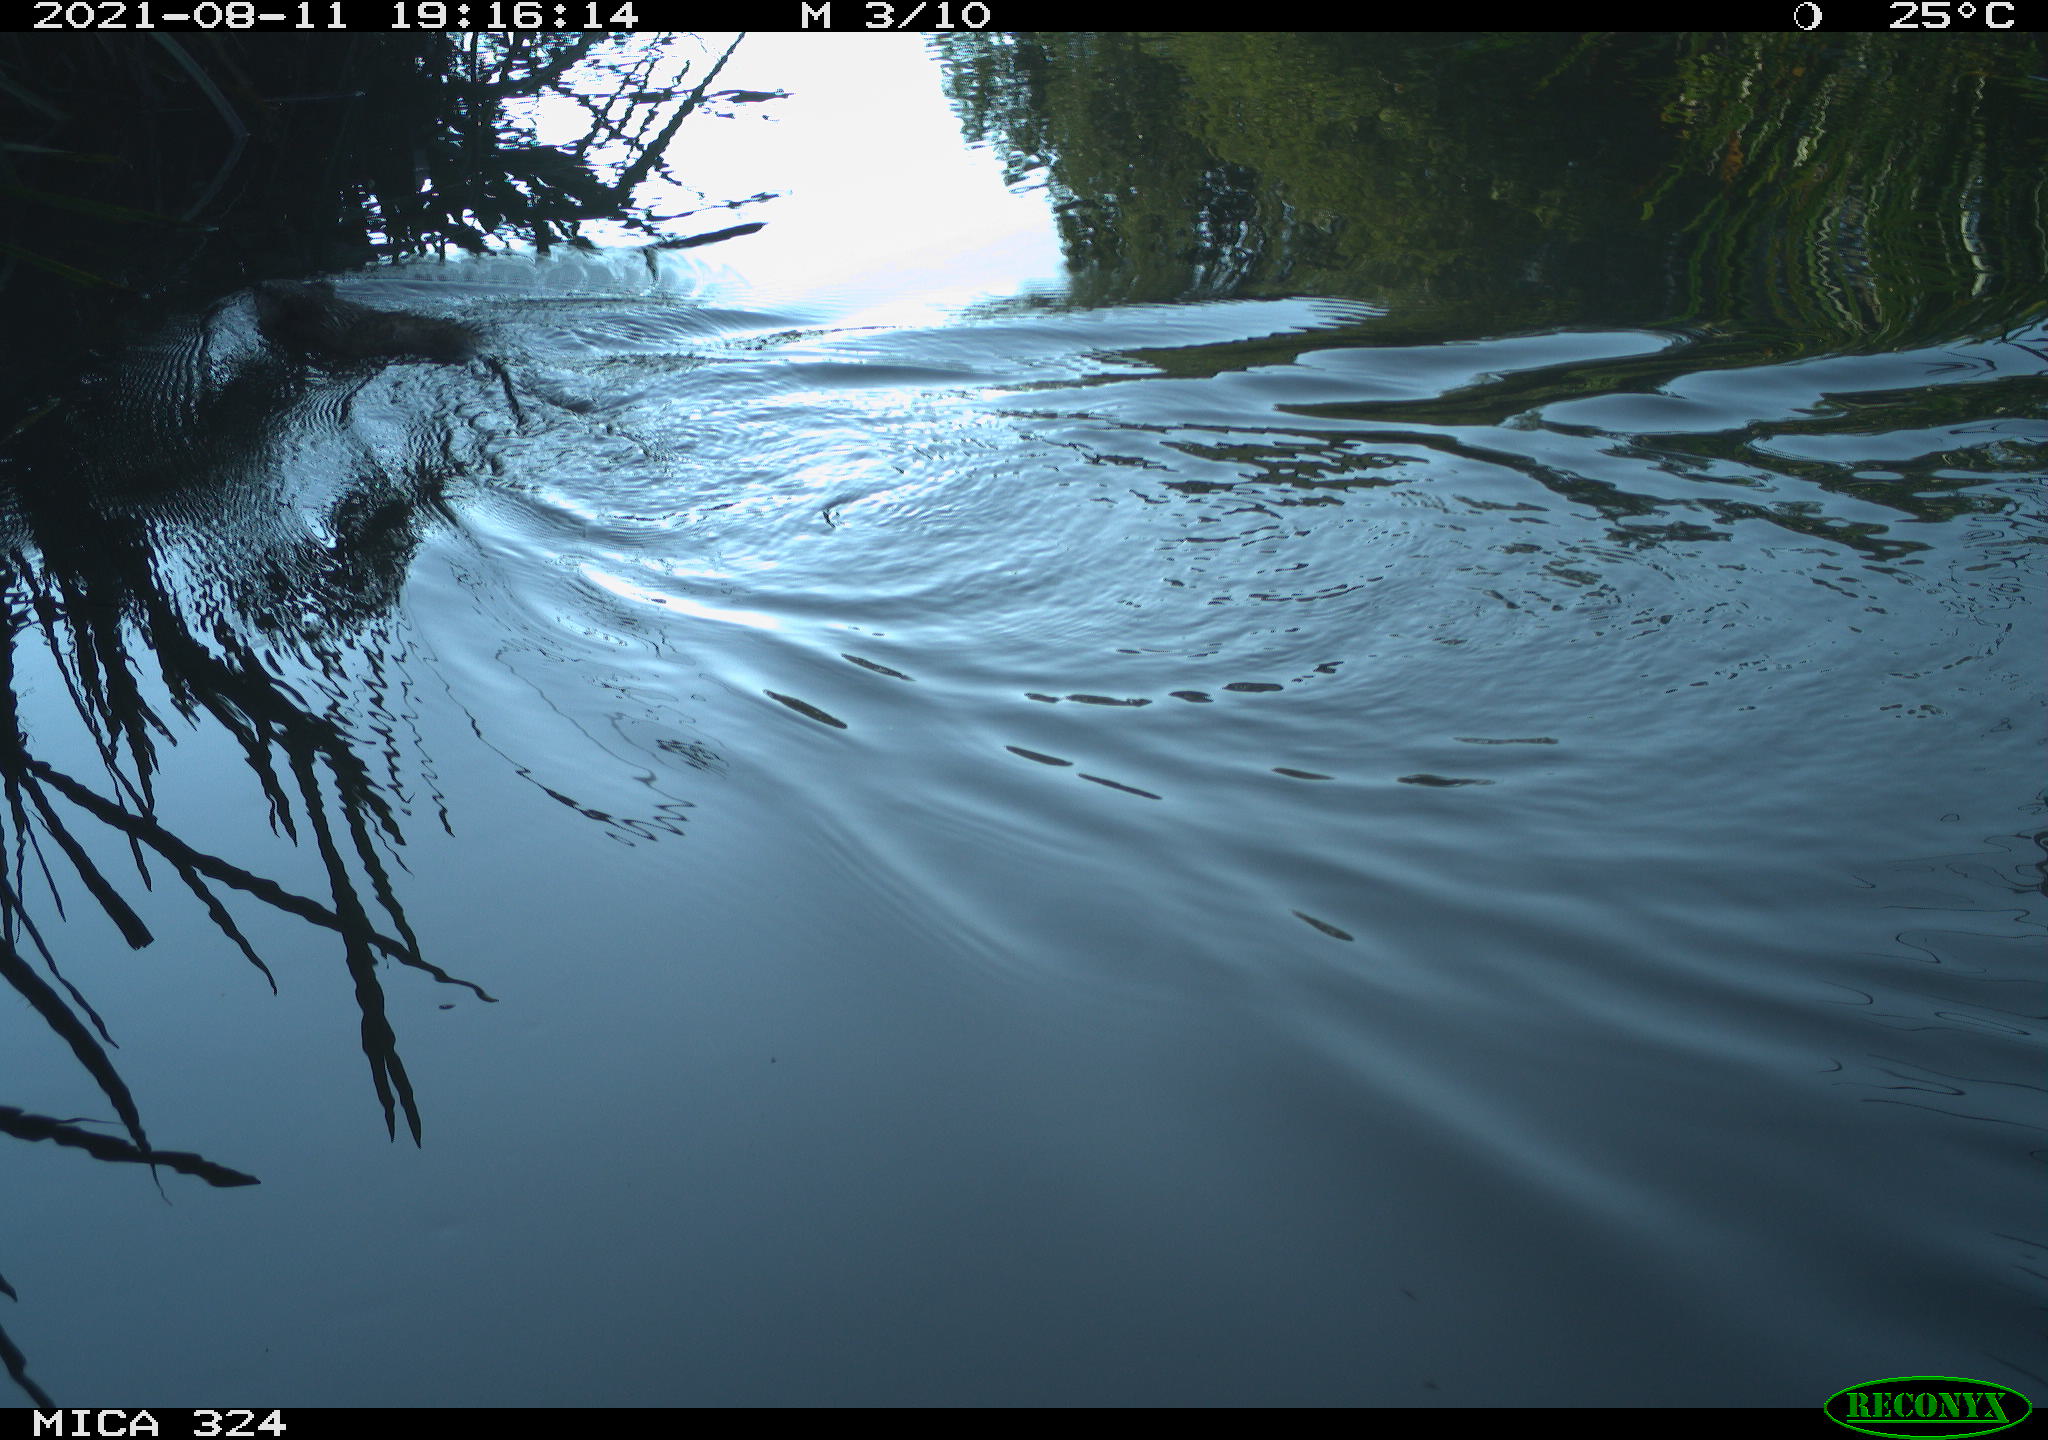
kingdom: Animalia
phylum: Chordata
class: Mammalia
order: Rodentia
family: Cricetidae
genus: Ondatra
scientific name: Ondatra zibethicus
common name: Muskrat
